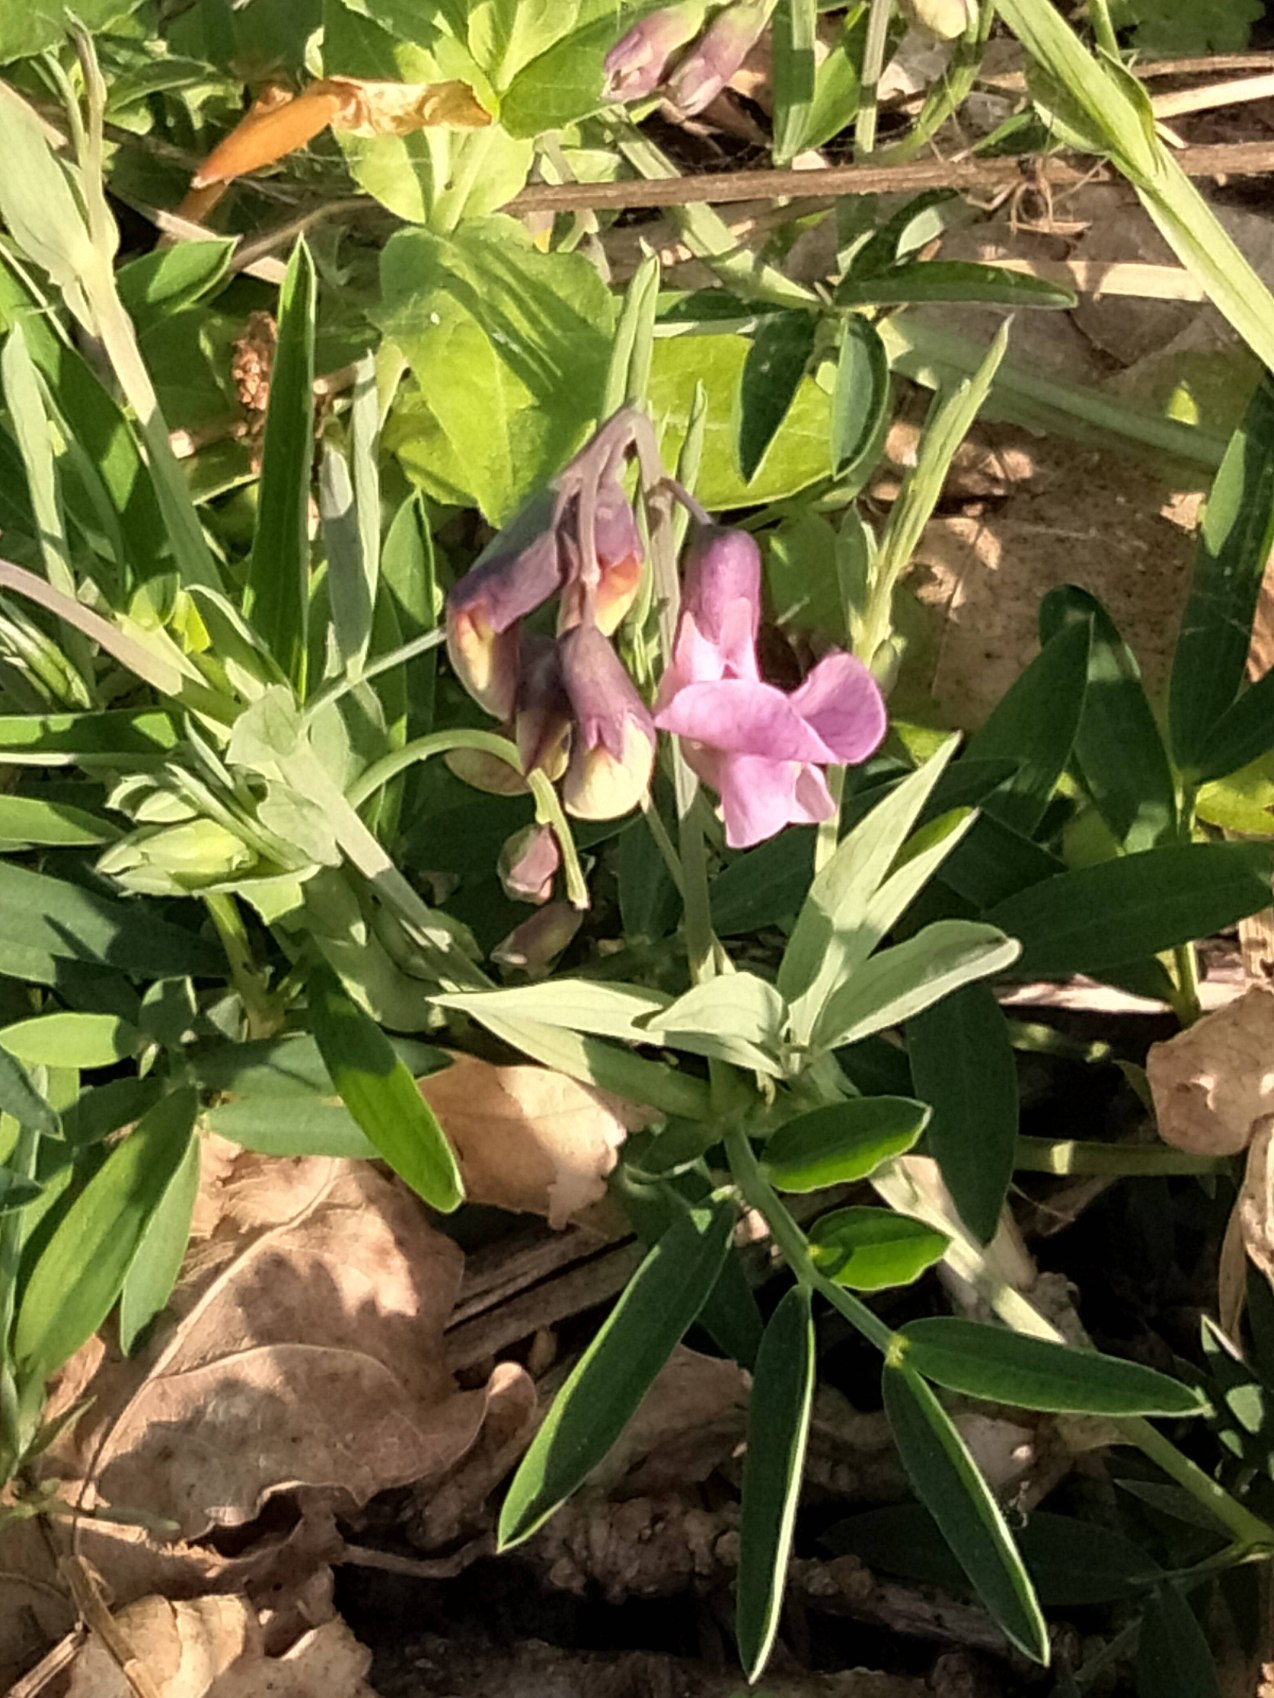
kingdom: Plantae
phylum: Tracheophyta
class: Magnoliopsida
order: Fabales
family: Fabaceae
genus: Lathyrus
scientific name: Lathyrus linifolius
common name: Krat-fladbælg
